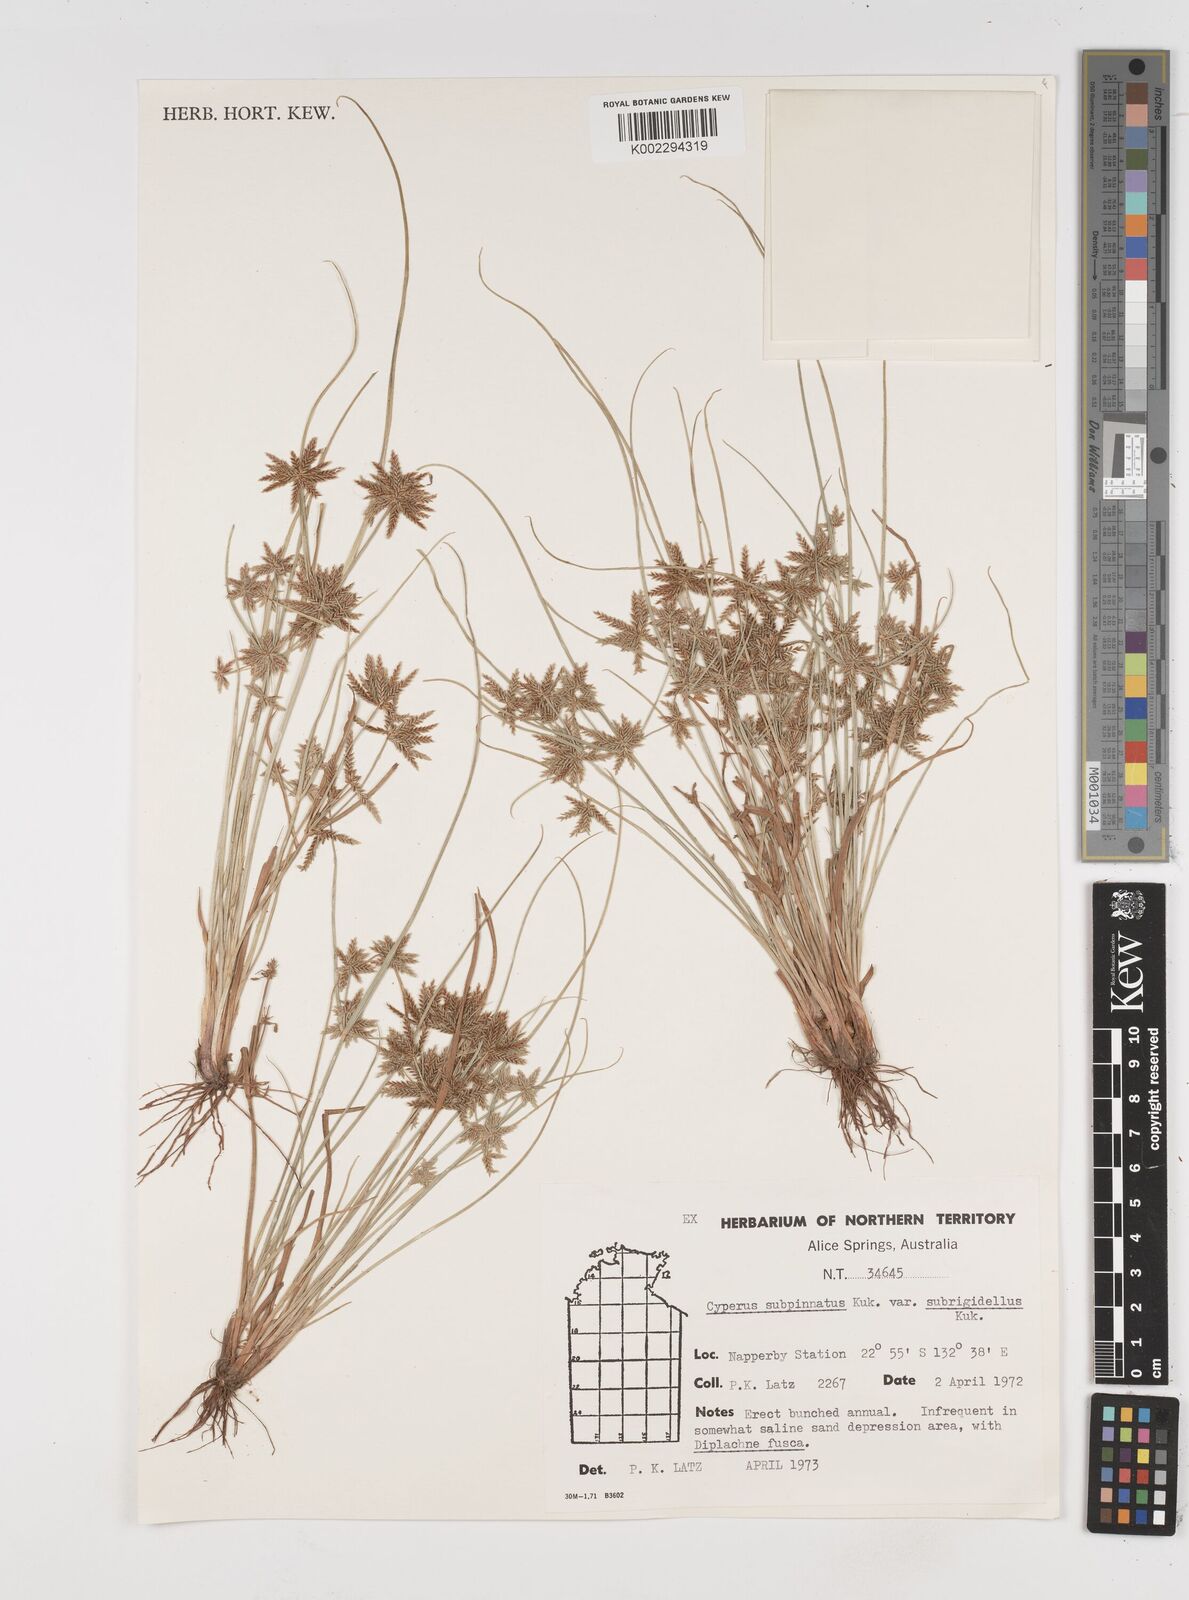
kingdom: Plantae
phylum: Tracheophyta
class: Liliopsida
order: Poales
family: Cyperaceae
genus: Cyperus
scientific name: Cyperus rigidellus
